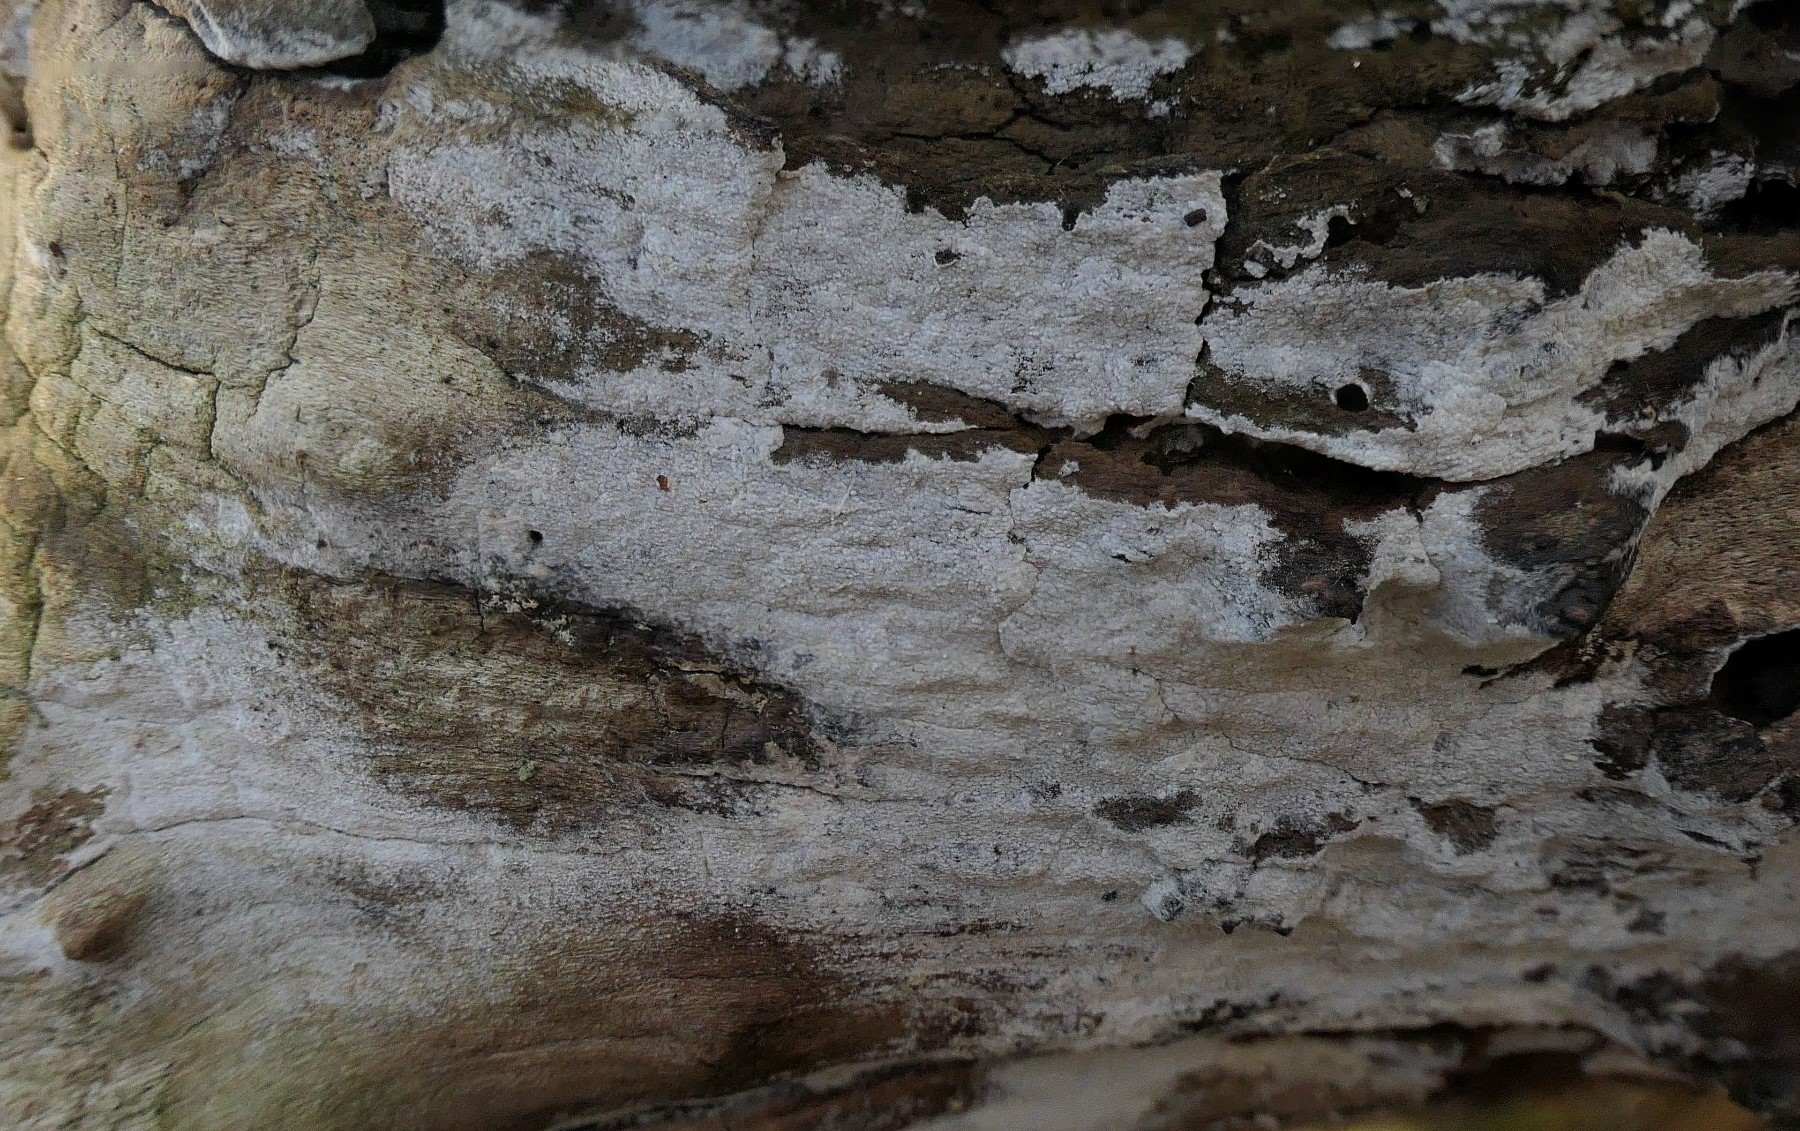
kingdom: Fungi
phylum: Basidiomycota
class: Agaricomycetes
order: Corticiales
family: Corticiaceae
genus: Lyomyces
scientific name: Lyomyces sambuci
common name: almindelig hyldehinde
